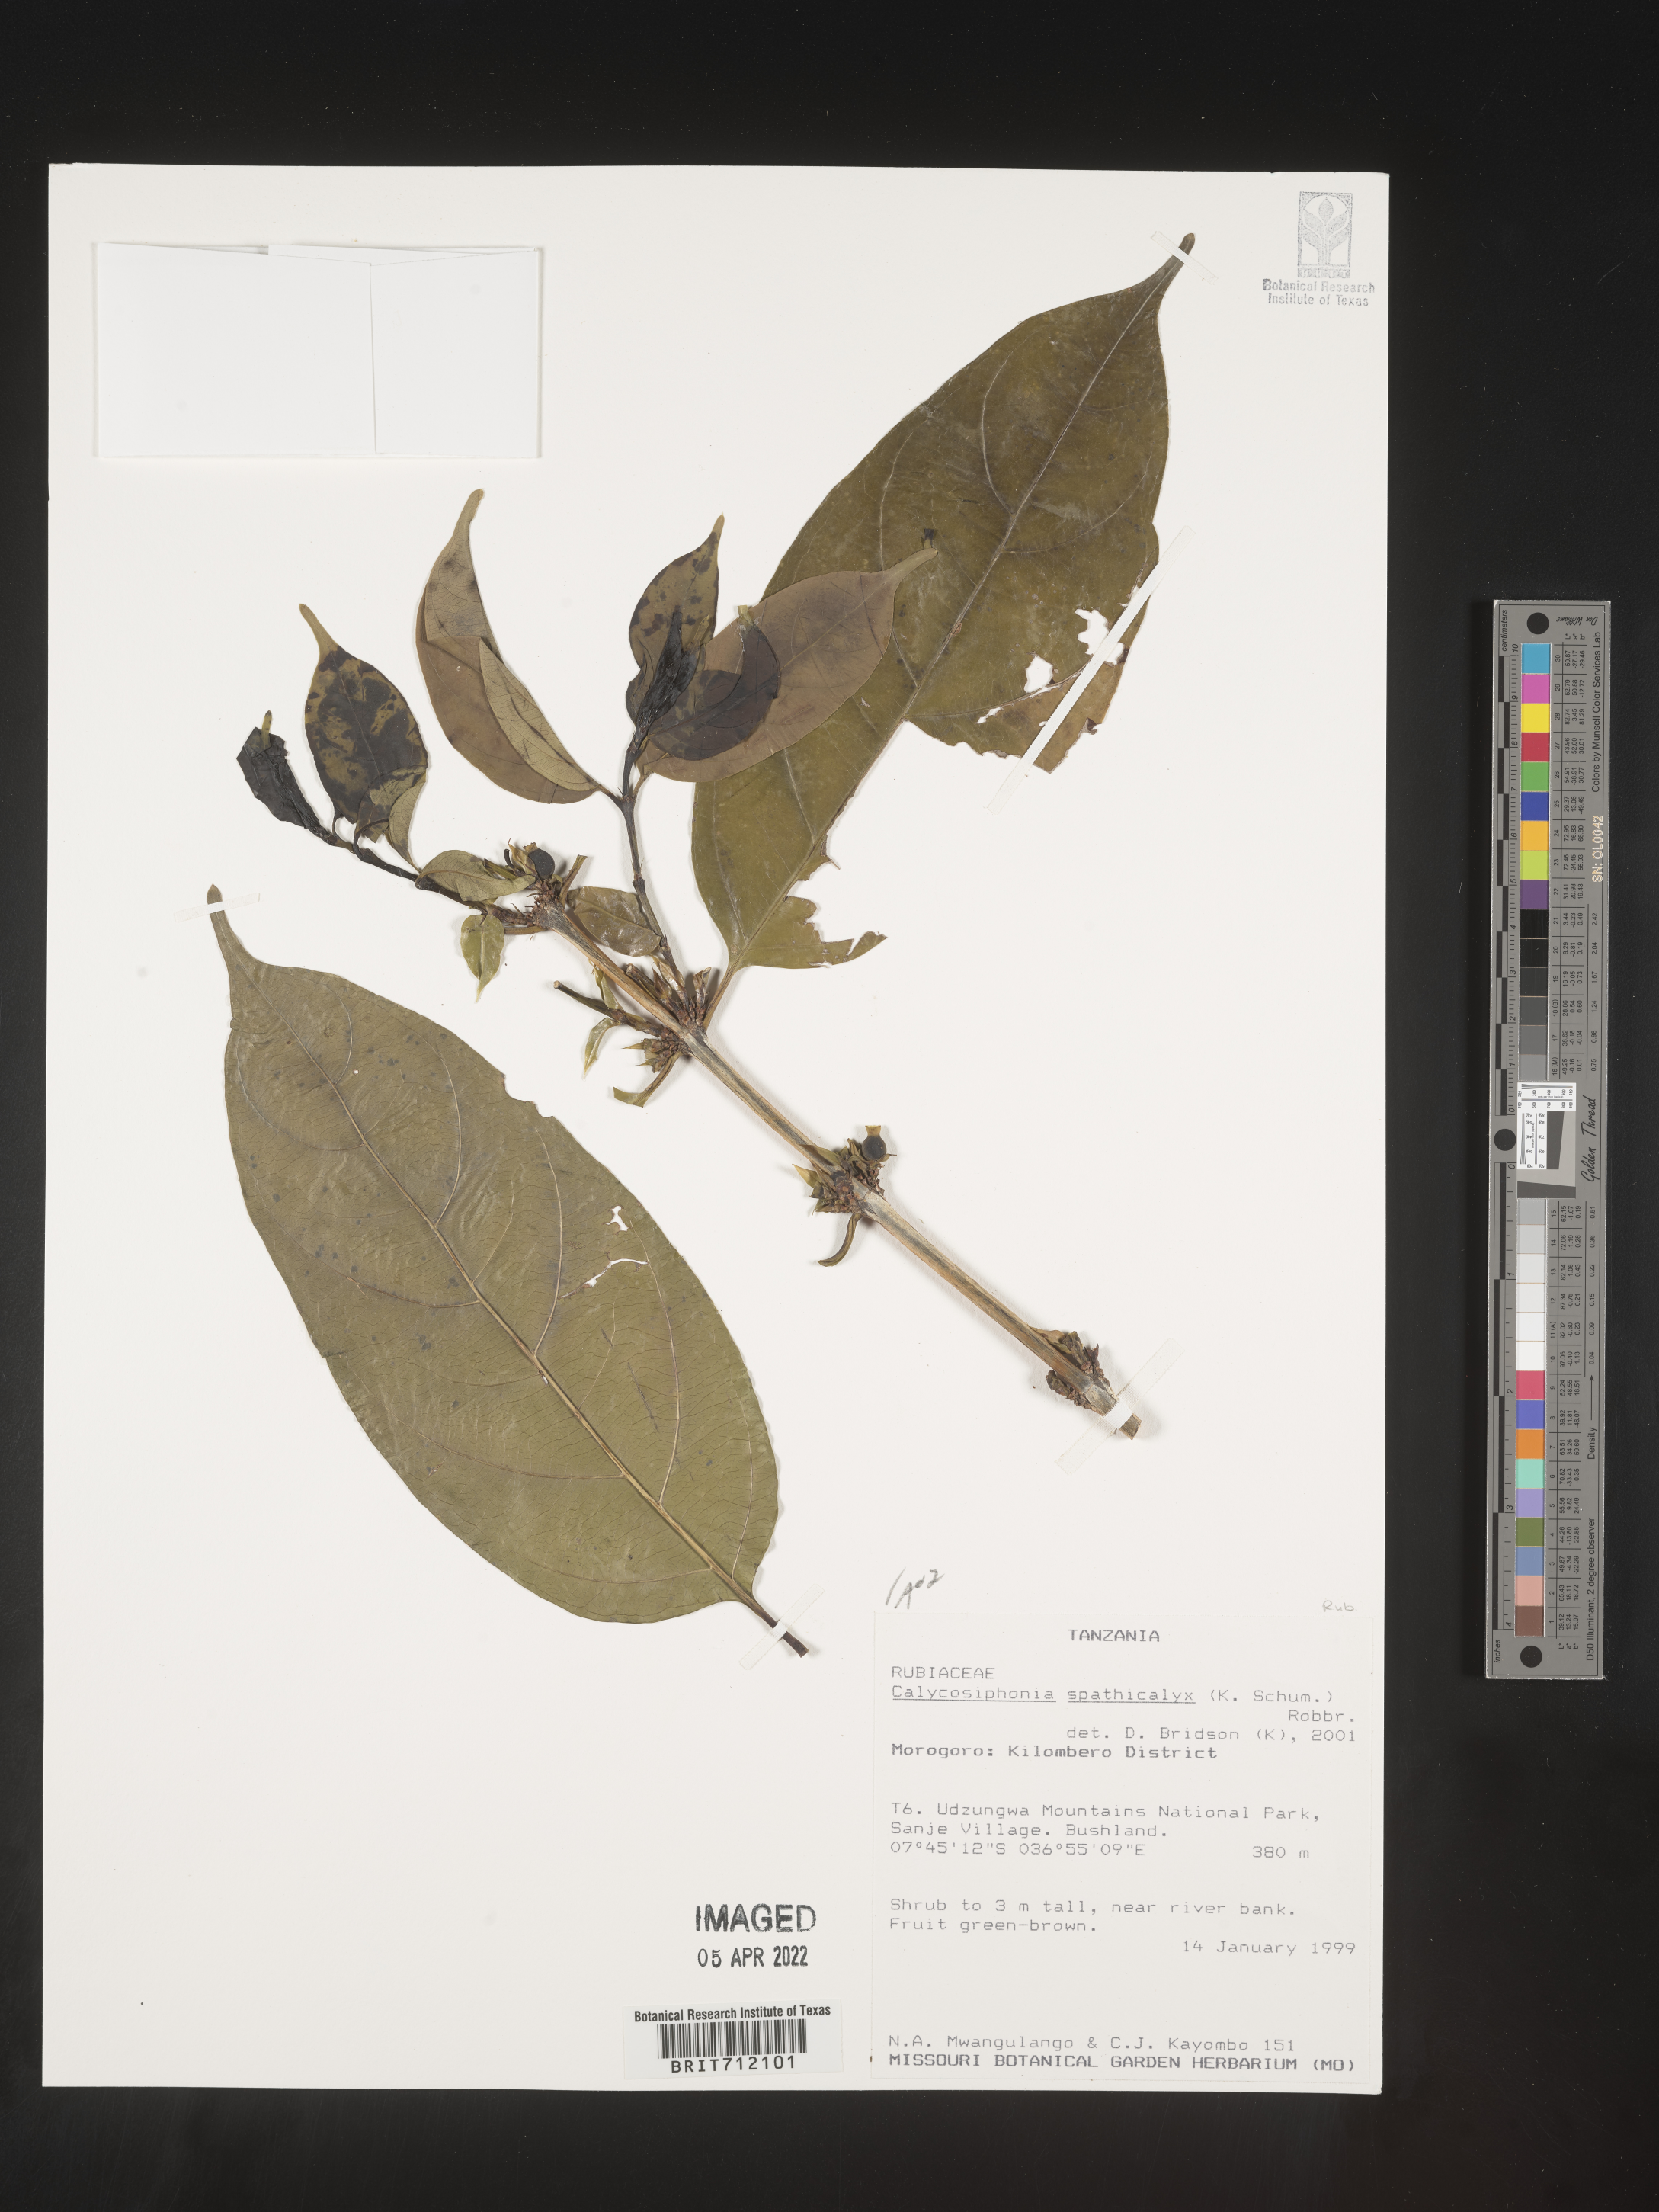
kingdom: Plantae
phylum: Tracheophyta
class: Magnoliopsida
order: Gentianales
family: Rubiaceae
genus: Calycosiphonia
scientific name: Calycosiphonia
